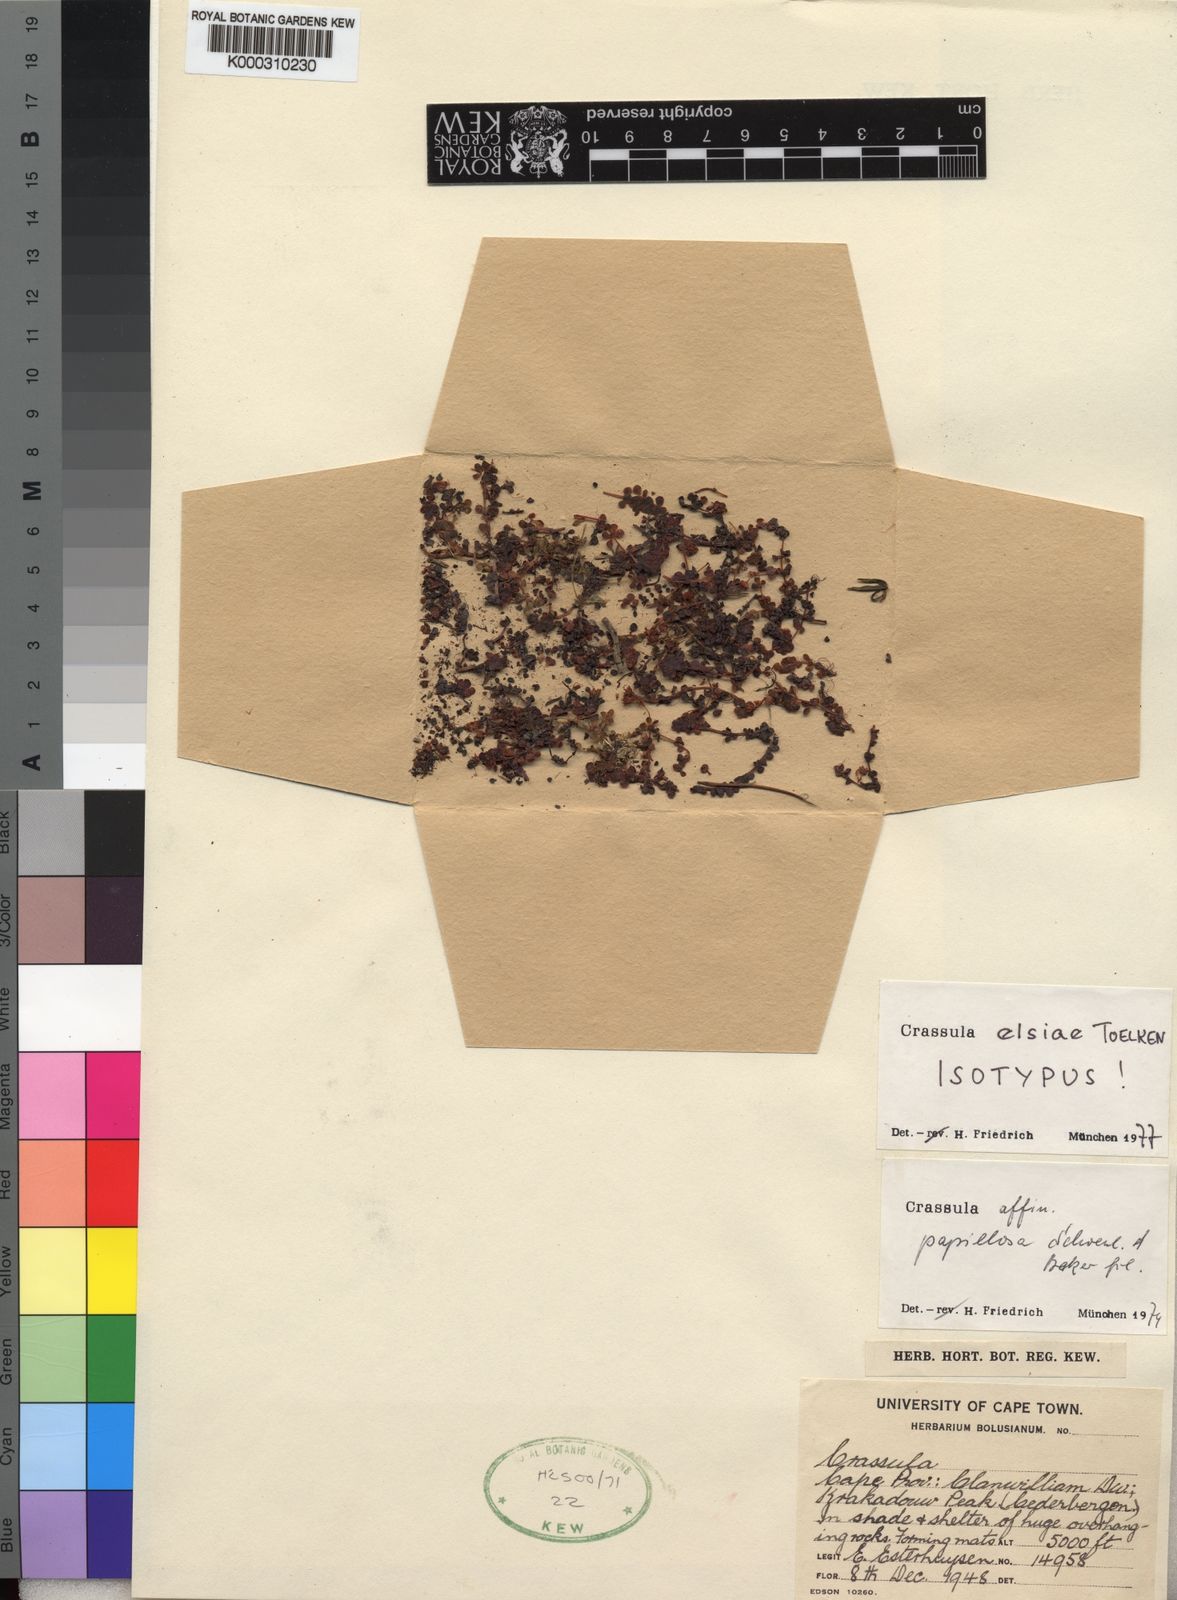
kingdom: Plantae
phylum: Tracheophyta
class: Magnoliopsida
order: Saxifragales
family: Crassulaceae
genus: Crassula
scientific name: Crassula
